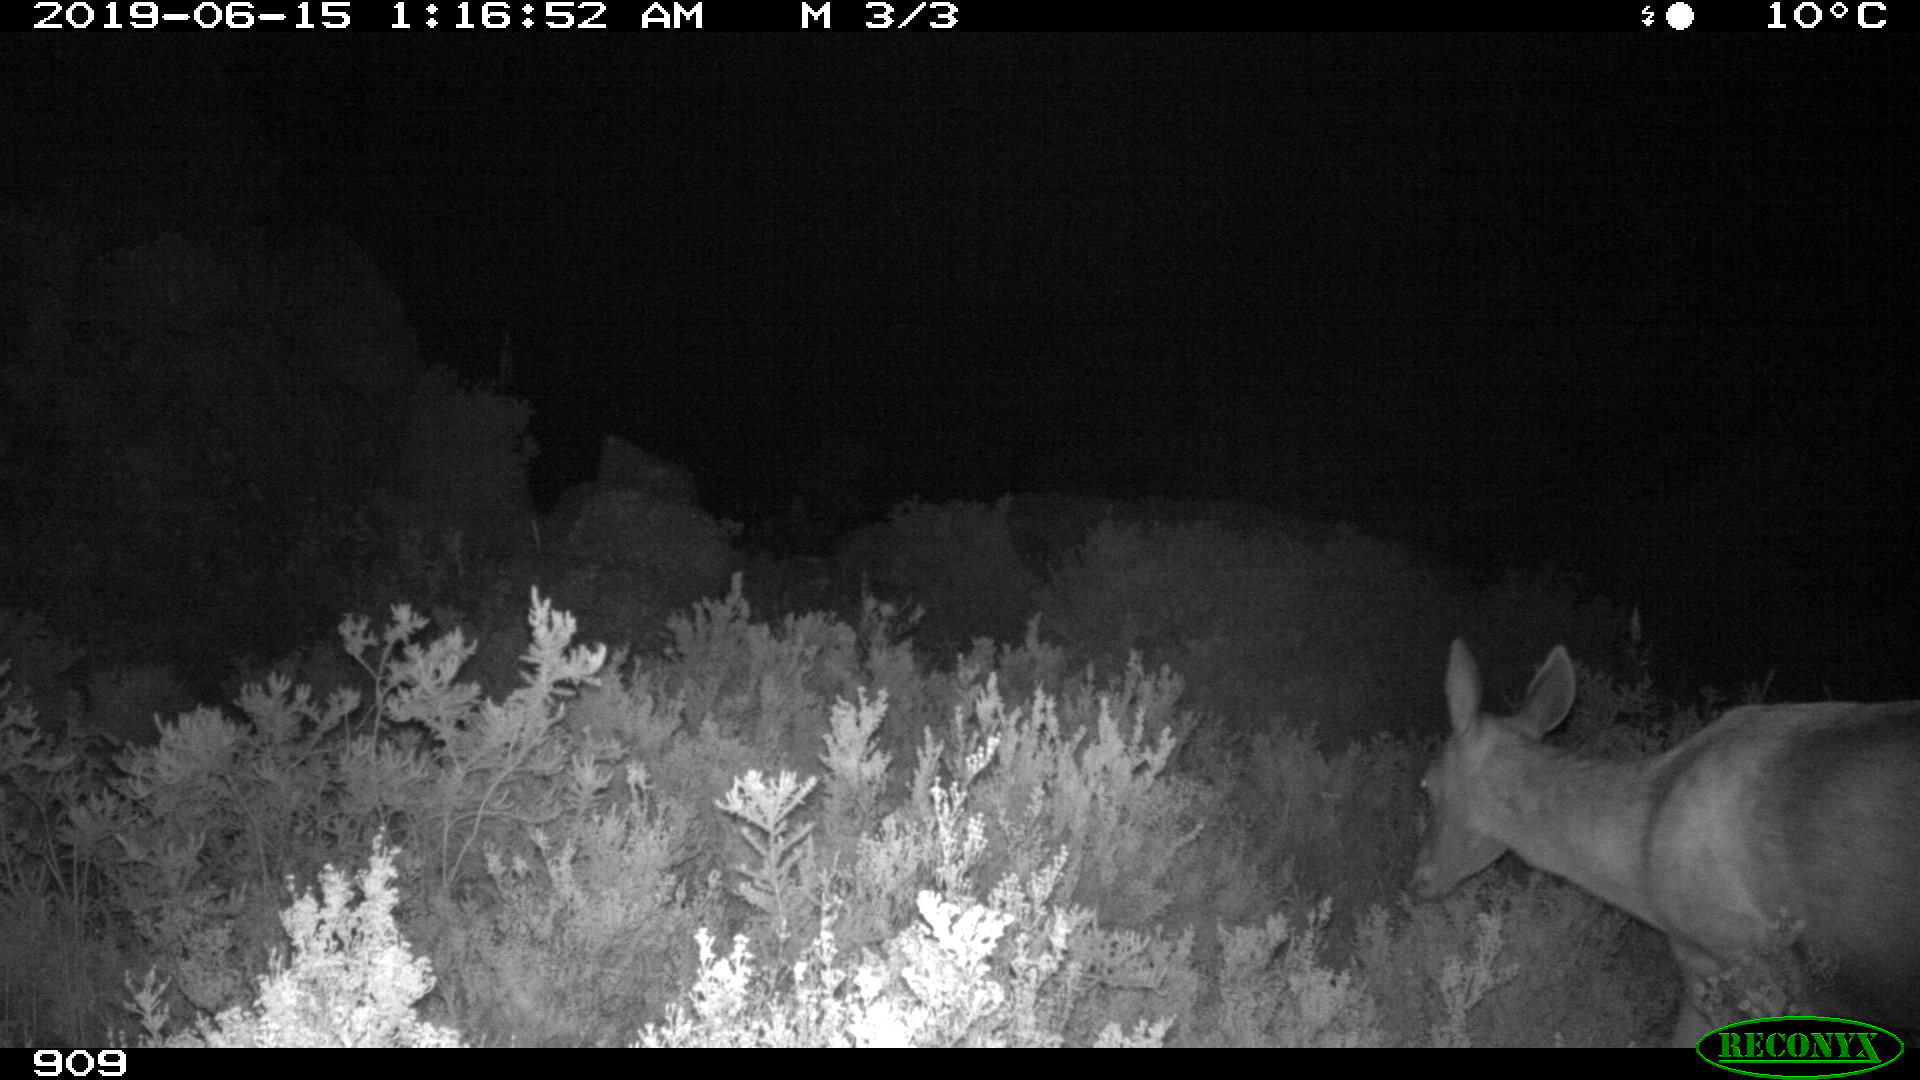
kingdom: Animalia
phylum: Chordata
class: Mammalia
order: Artiodactyla
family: Cervidae
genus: Cervus
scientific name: Cervus elaphus
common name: Red deer
